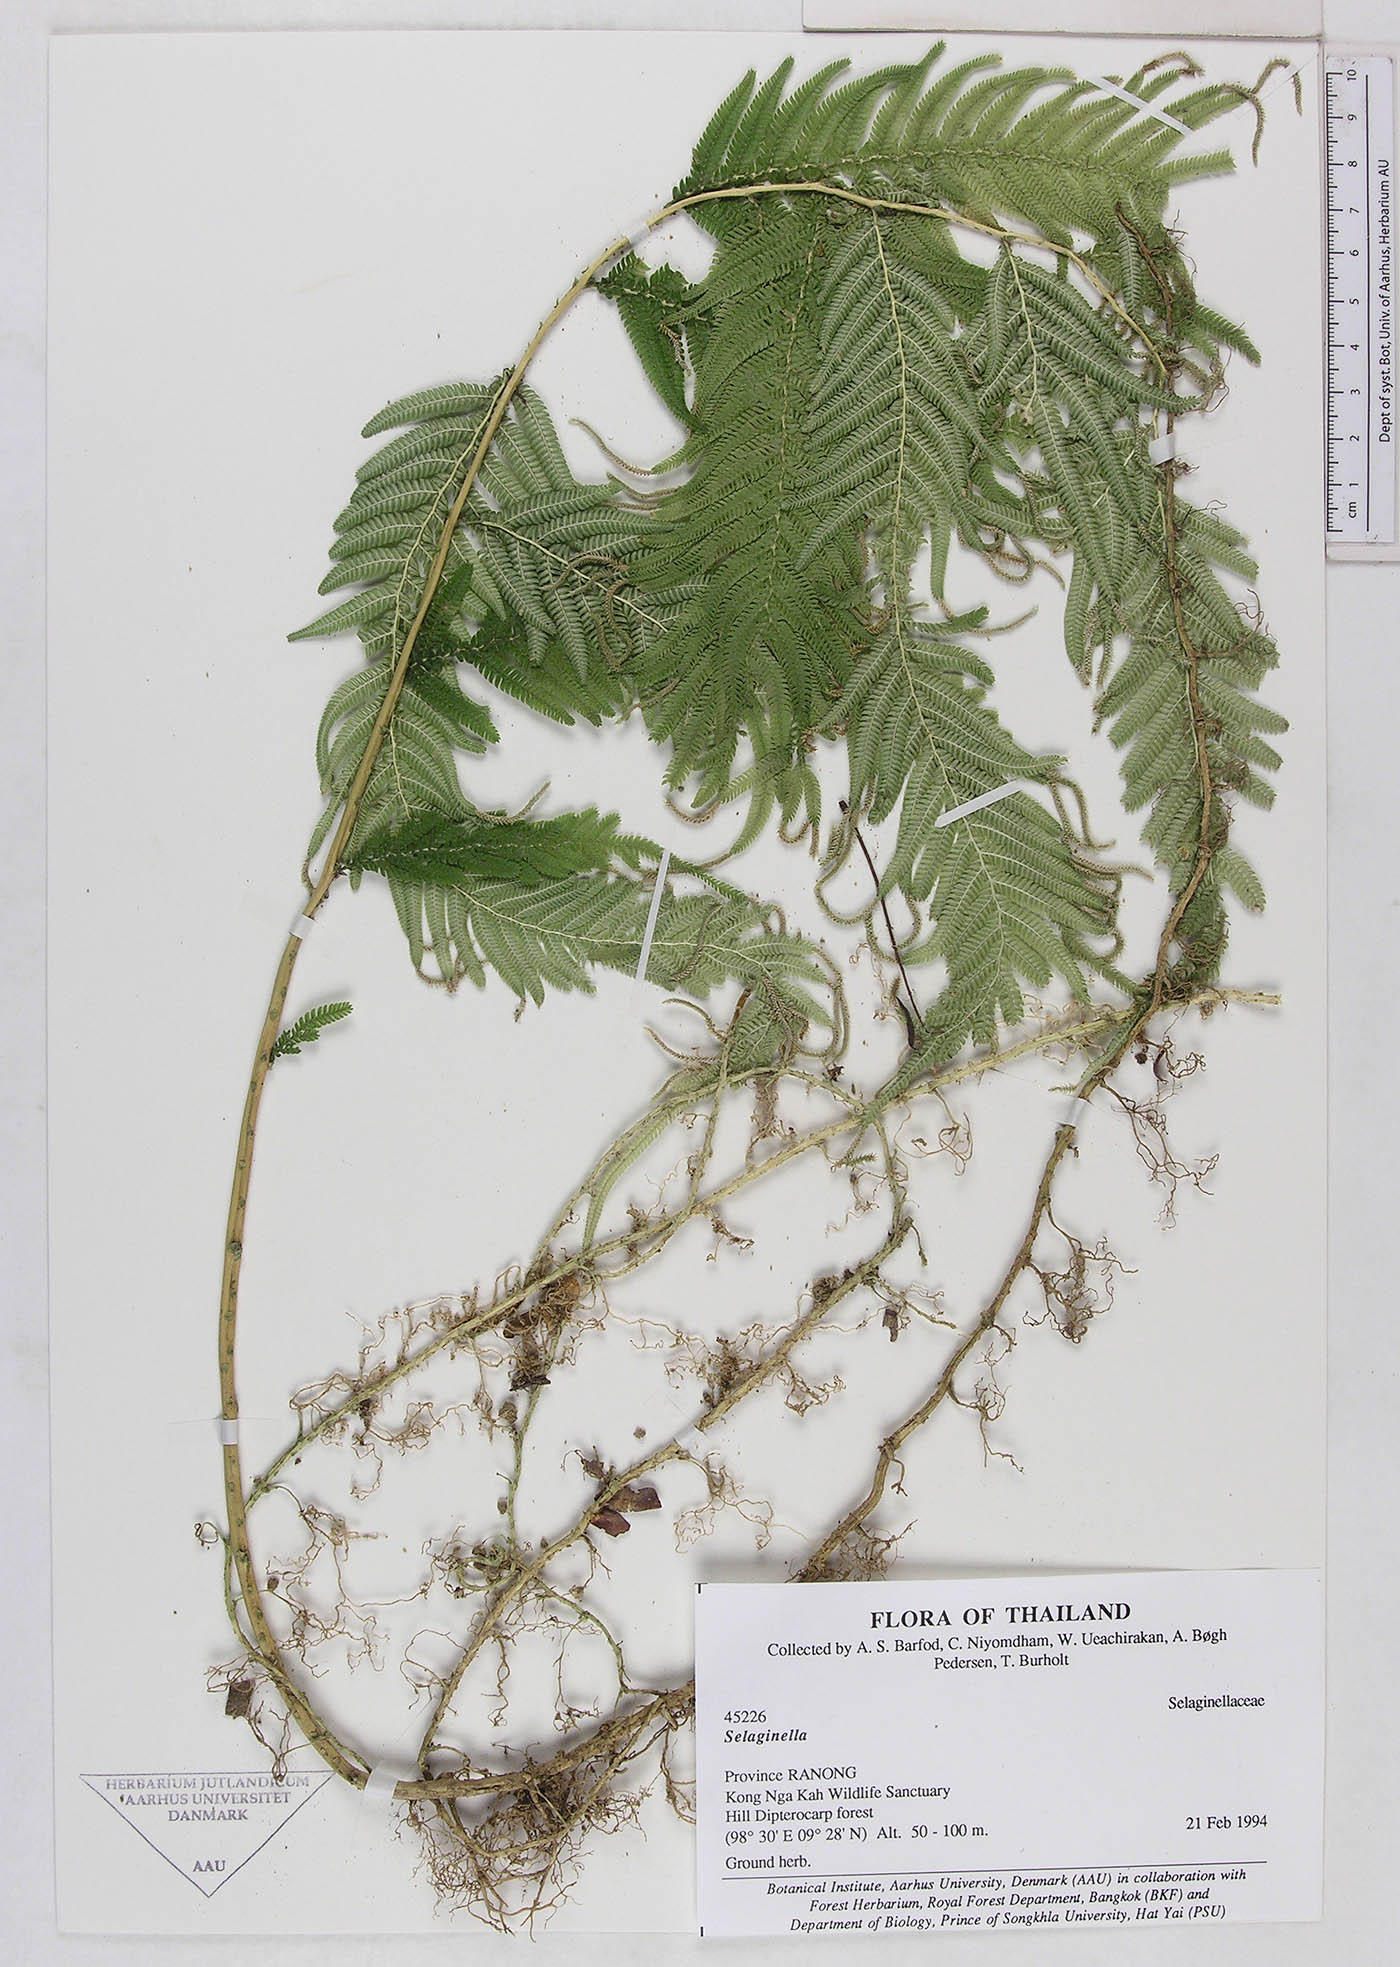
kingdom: Plantae
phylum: Tracheophyta
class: Lycopodiopsida
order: Selaginellales
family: Selaginellaceae
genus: Selaginella
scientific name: Selaginella
